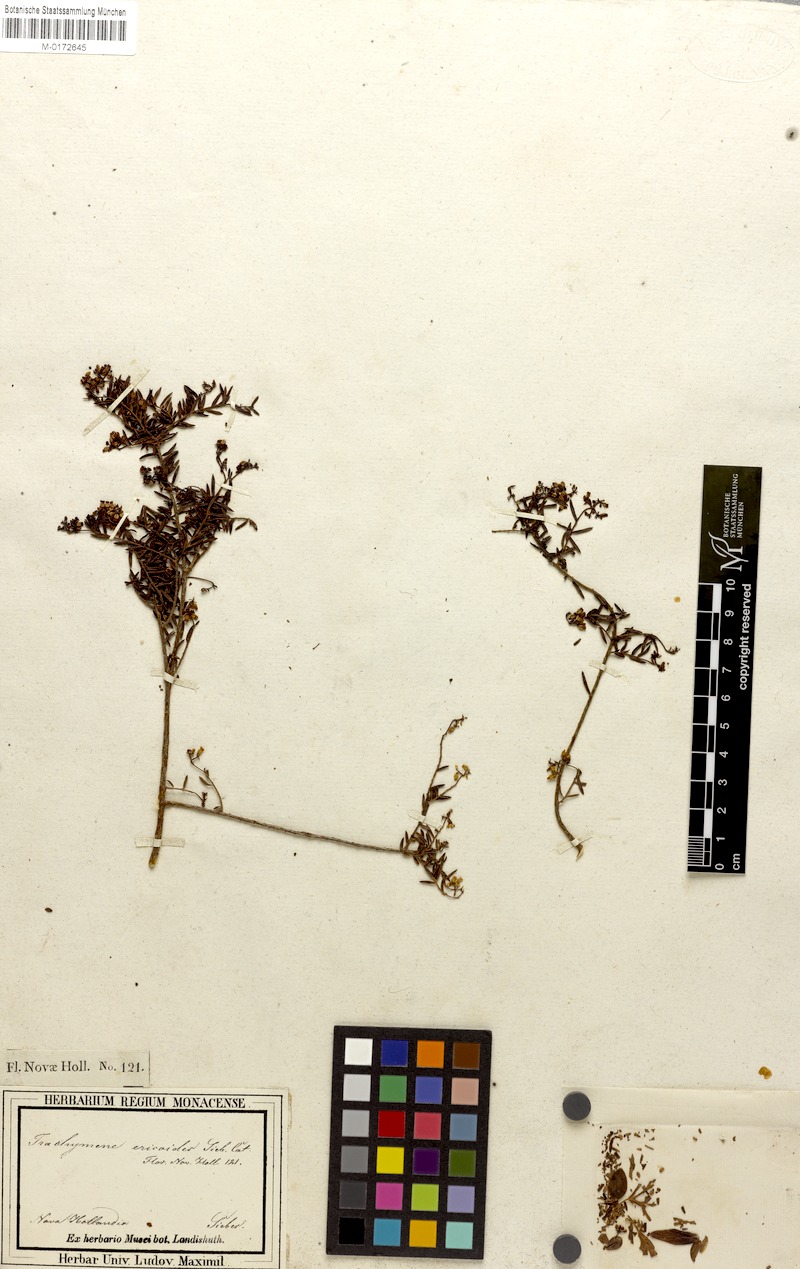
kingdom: Plantae
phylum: Tracheophyta
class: Magnoliopsida
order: Apiales
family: Apiaceae
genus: Platysace
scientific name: Platysace ericoides
